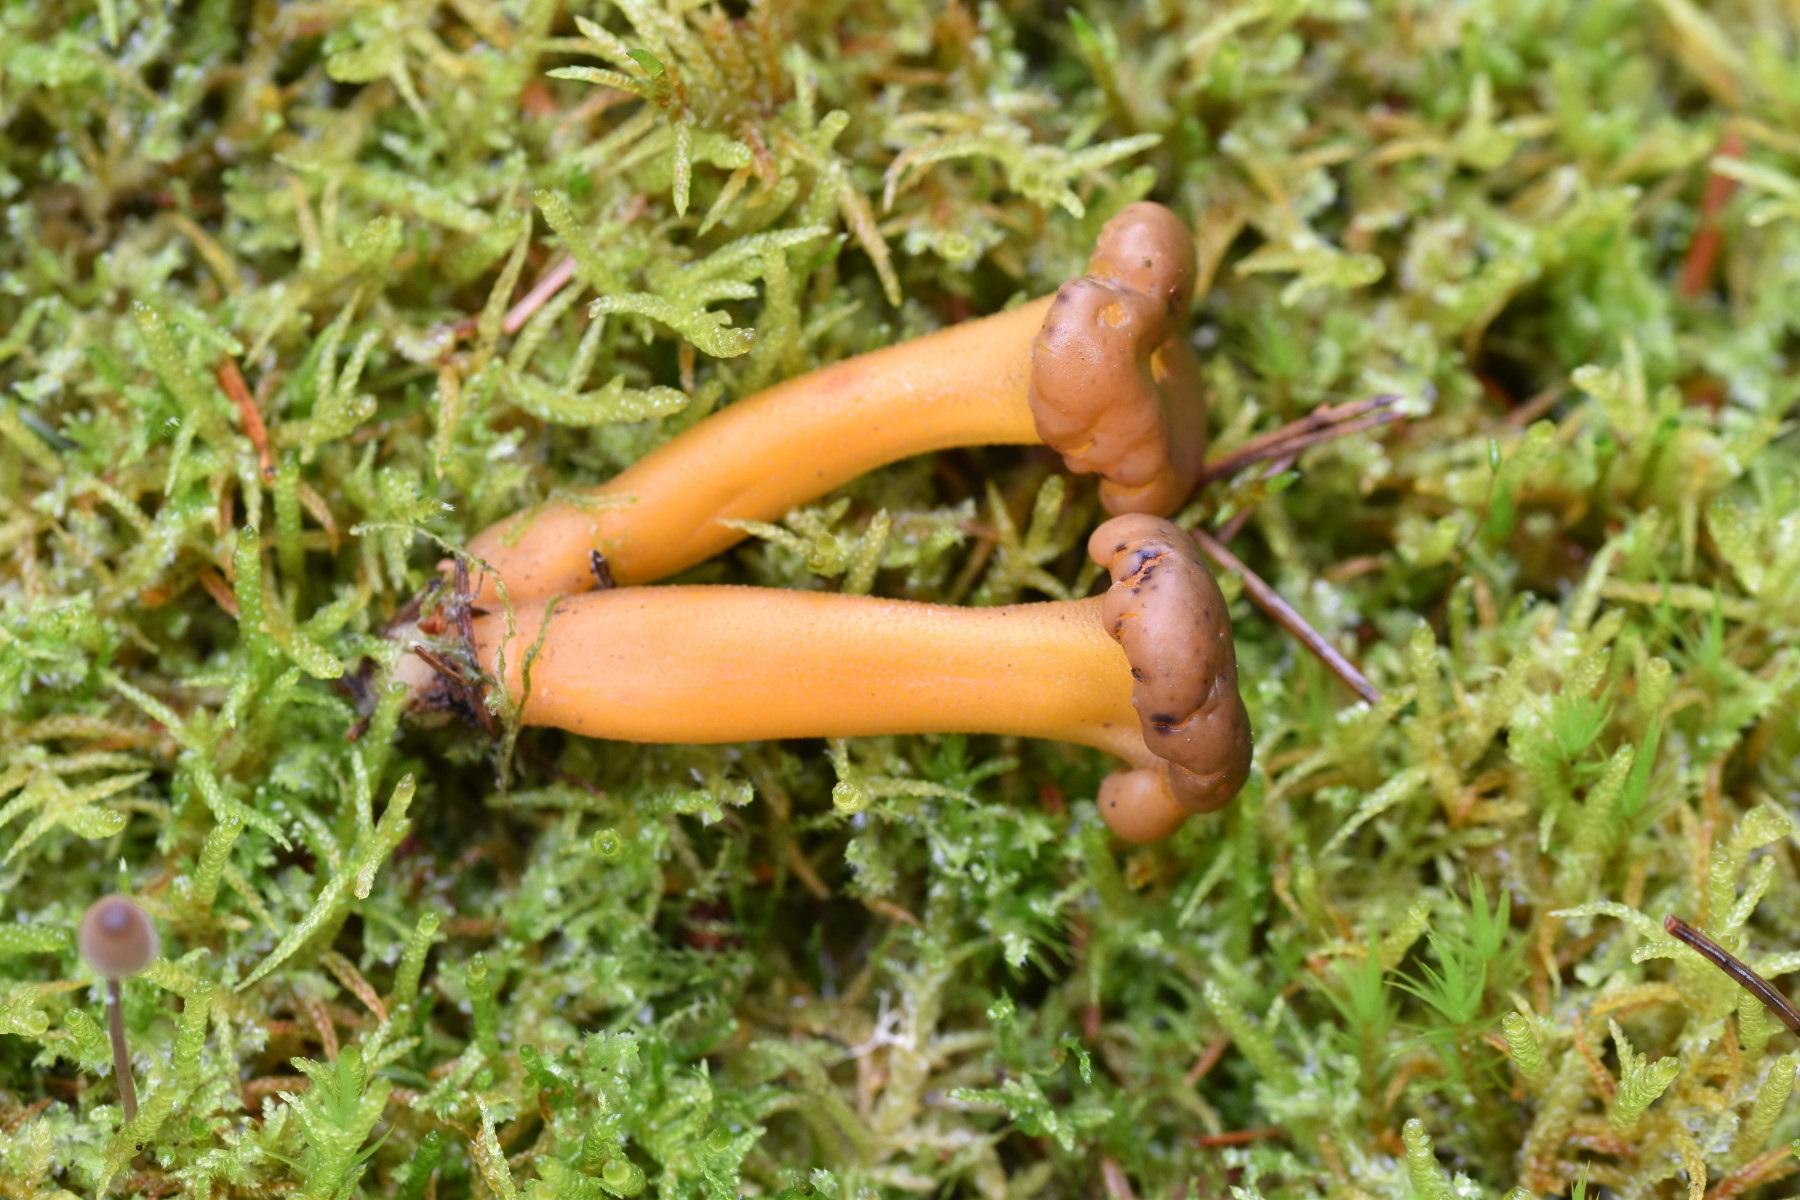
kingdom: Fungi
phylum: Ascomycota
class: Leotiomycetes
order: Leotiales
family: Leotiaceae
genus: Leotia
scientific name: Leotia lubrica
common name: ravsvamp
